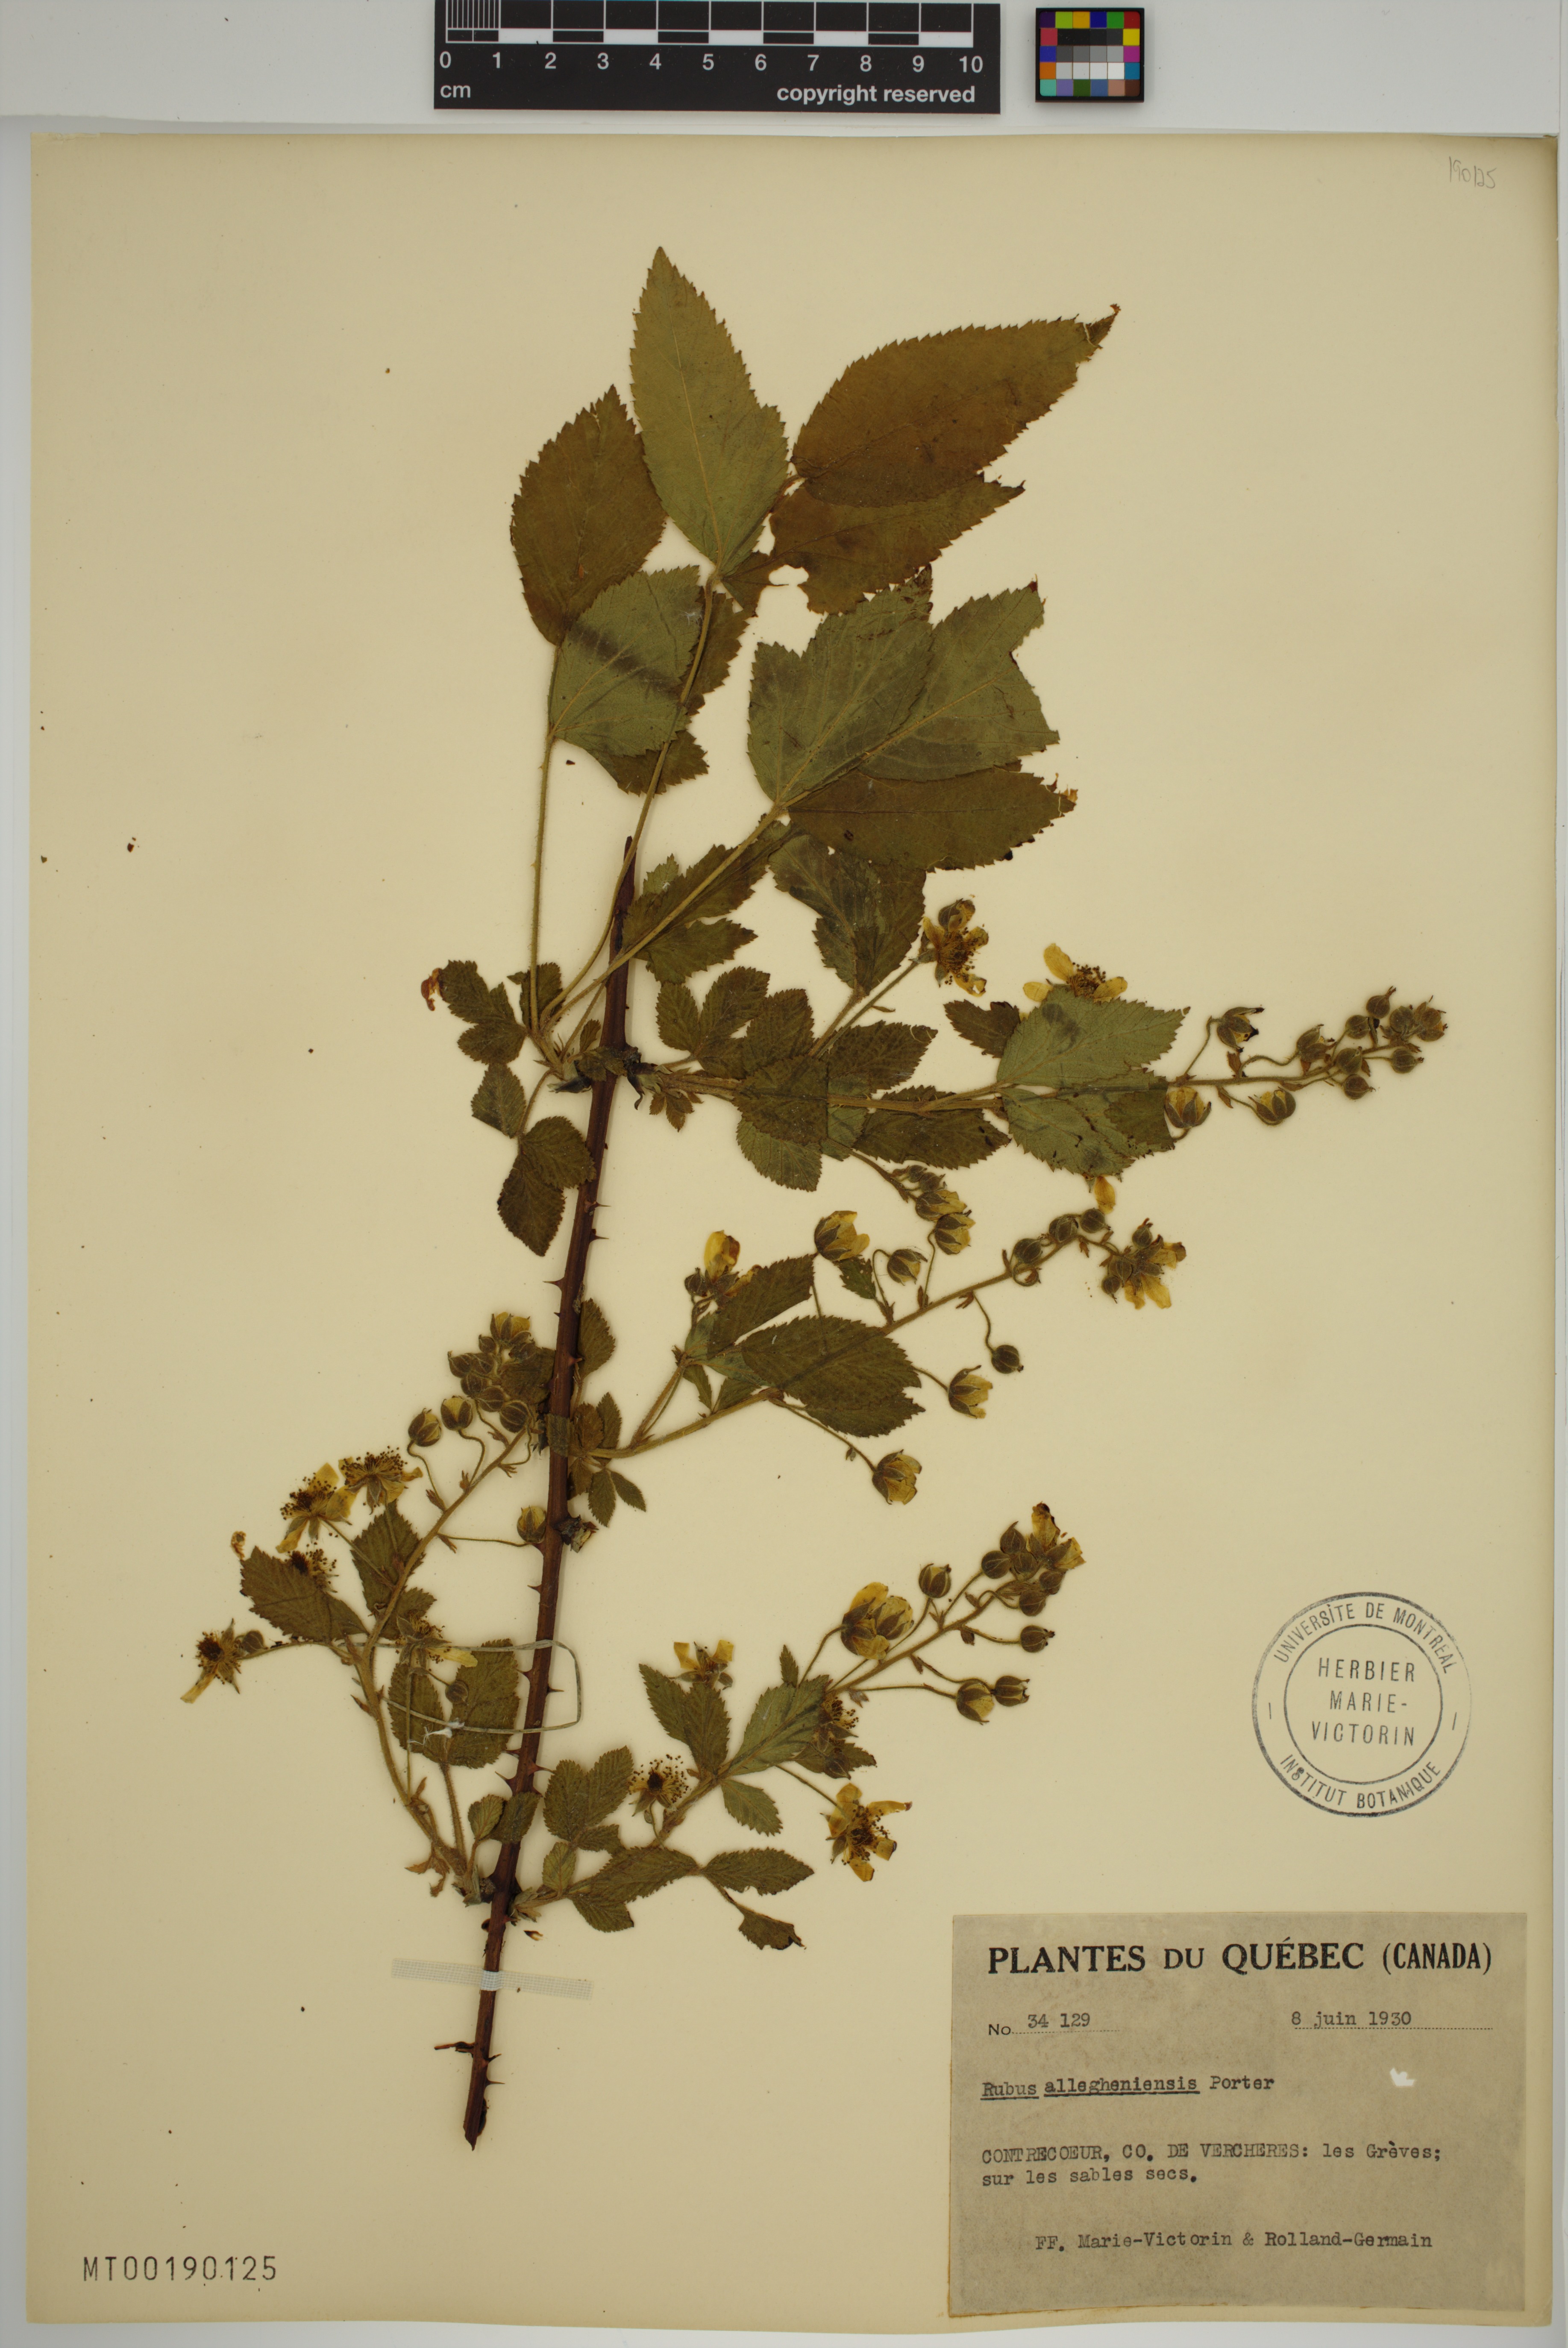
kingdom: Plantae
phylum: Tracheophyta
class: Magnoliopsida
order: Rosales
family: Rosaceae
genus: Rubus
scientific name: Rubus allegheniensis
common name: Allegheny blackberry
